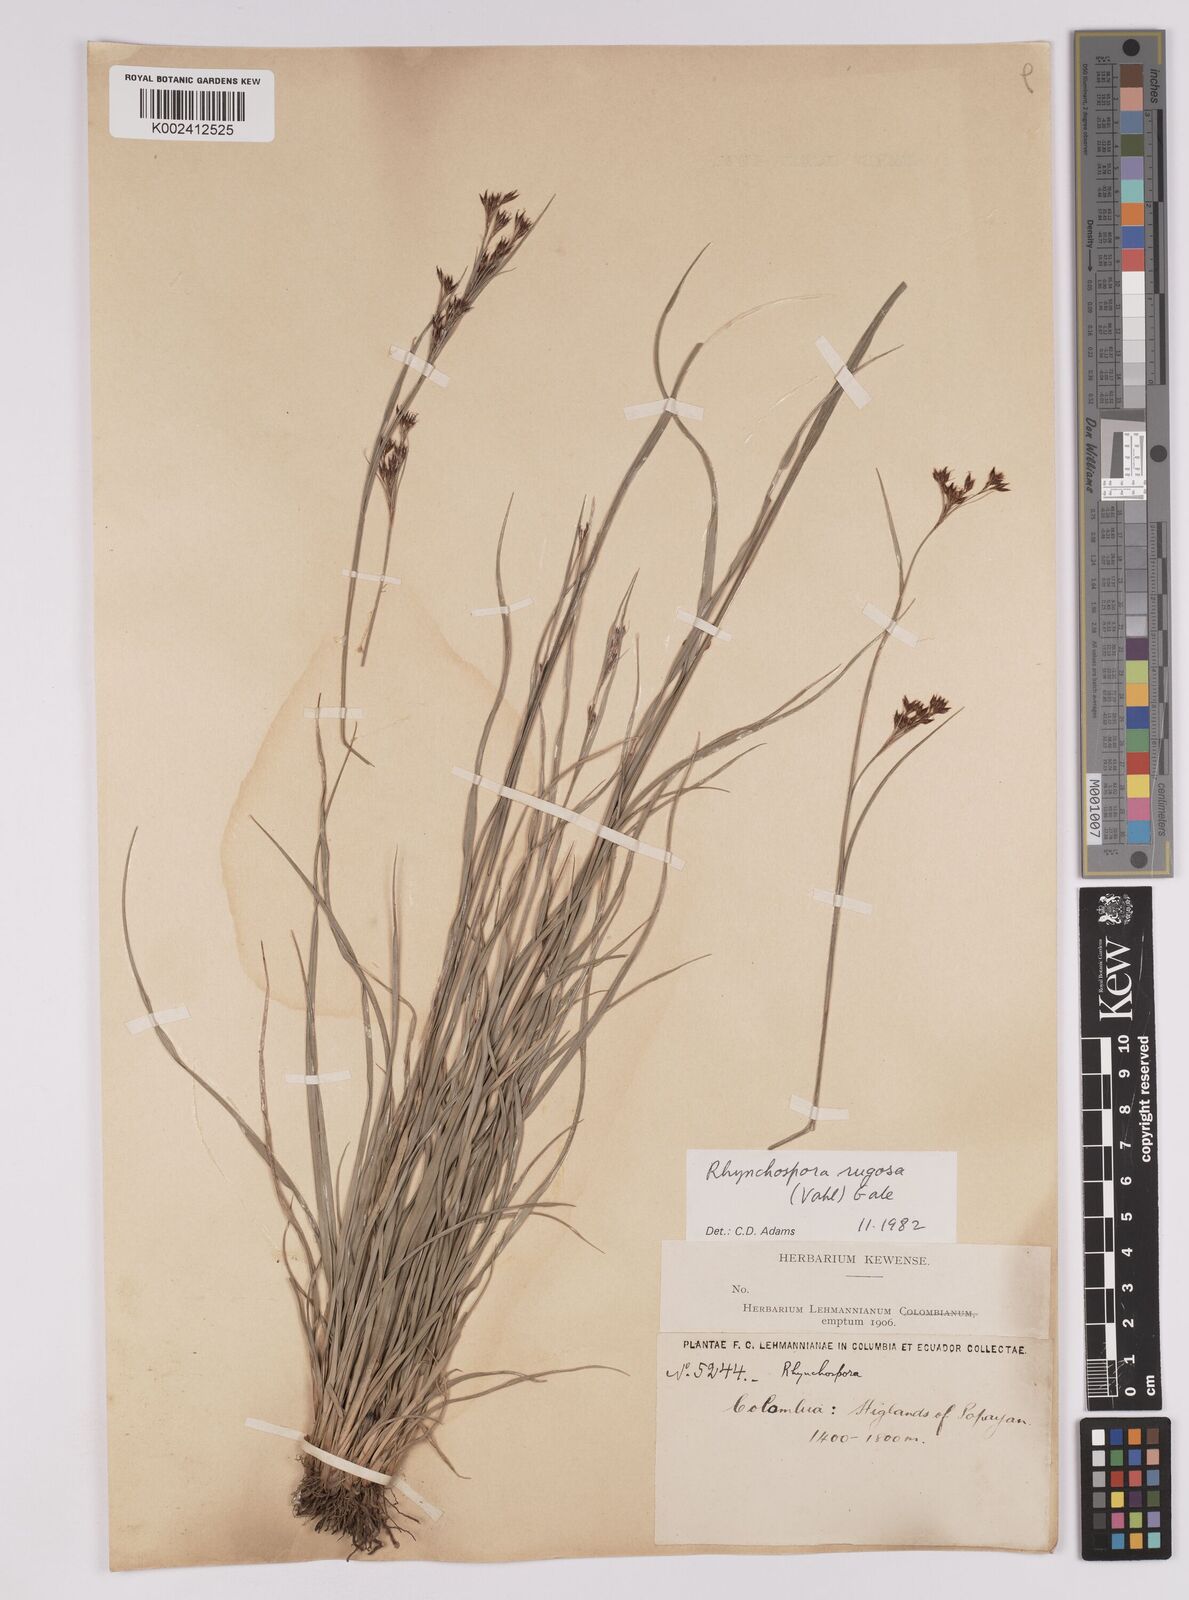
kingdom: Plantae
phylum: Tracheophyta
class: Liliopsida
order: Poales
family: Cyperaceae
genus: Rhynchospora
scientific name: Rhynchospora rugosa
